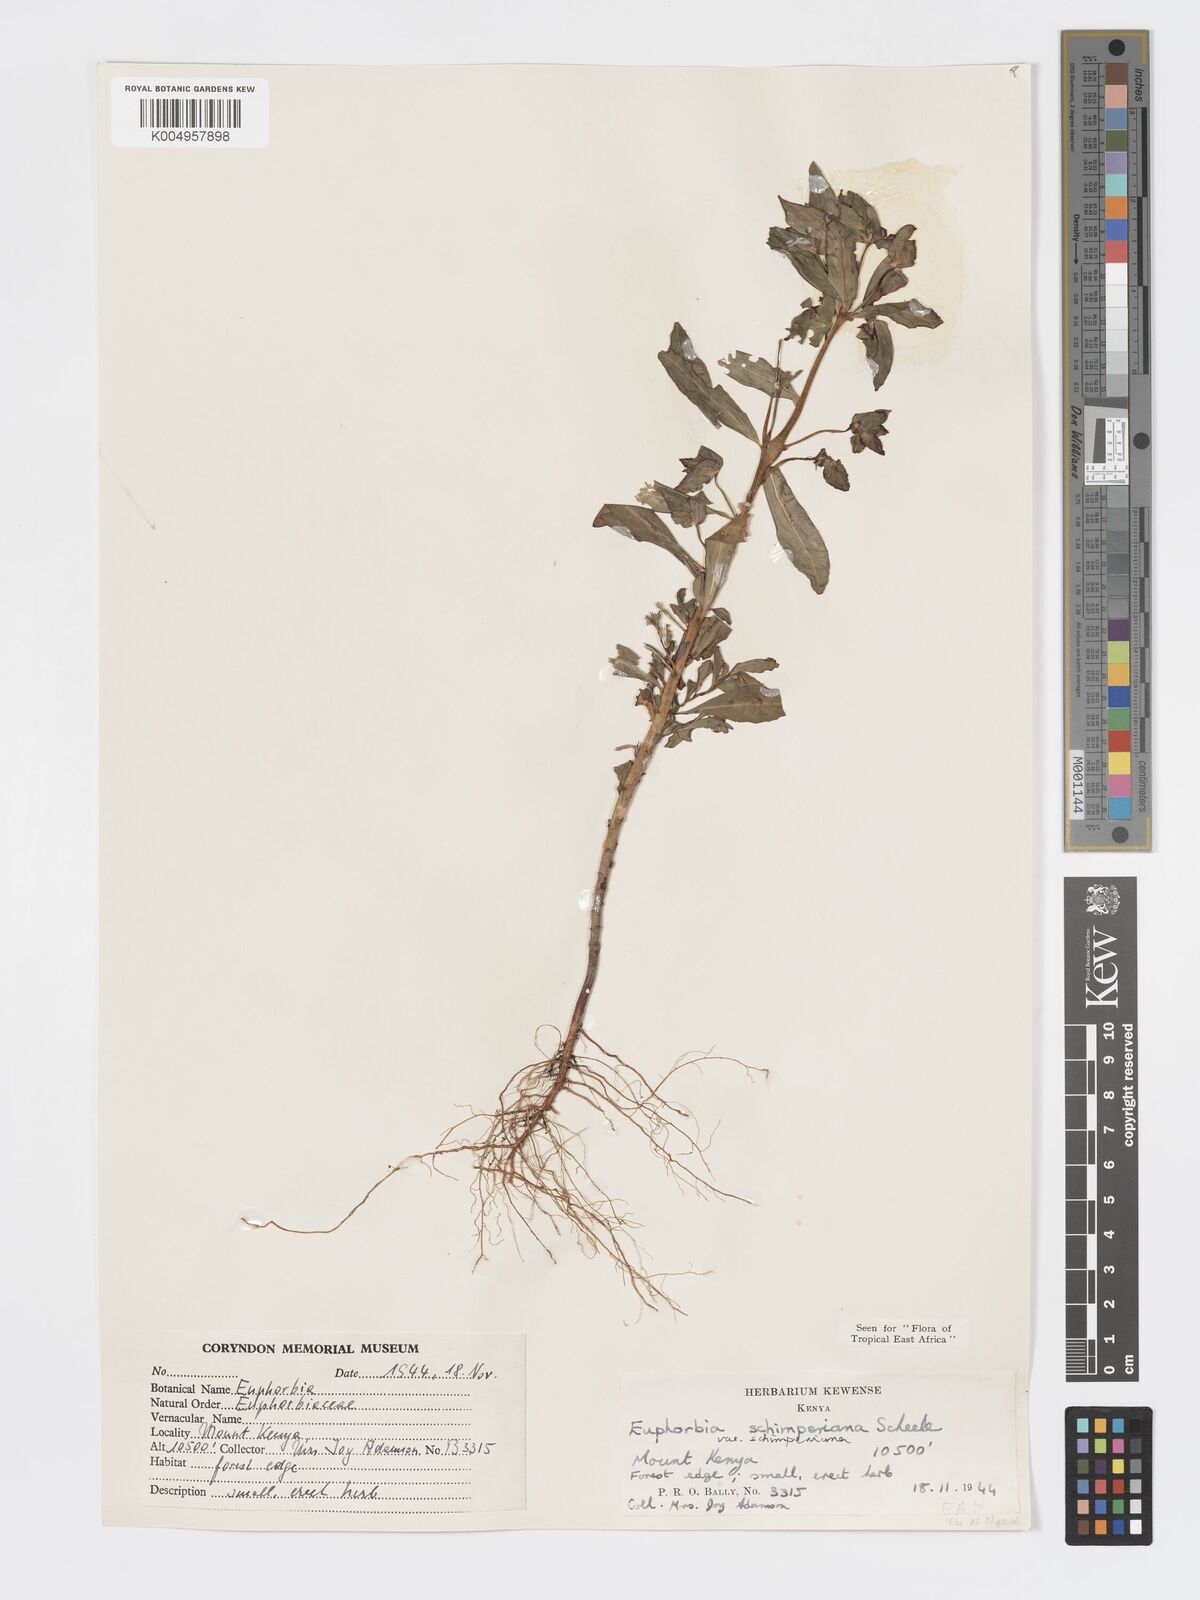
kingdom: Plantae
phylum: Tracheophyta
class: Magnoliopsida
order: Malpighiales
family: Euphorbiaceae
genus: Euphorbia
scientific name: Euphorbia schimperiana
